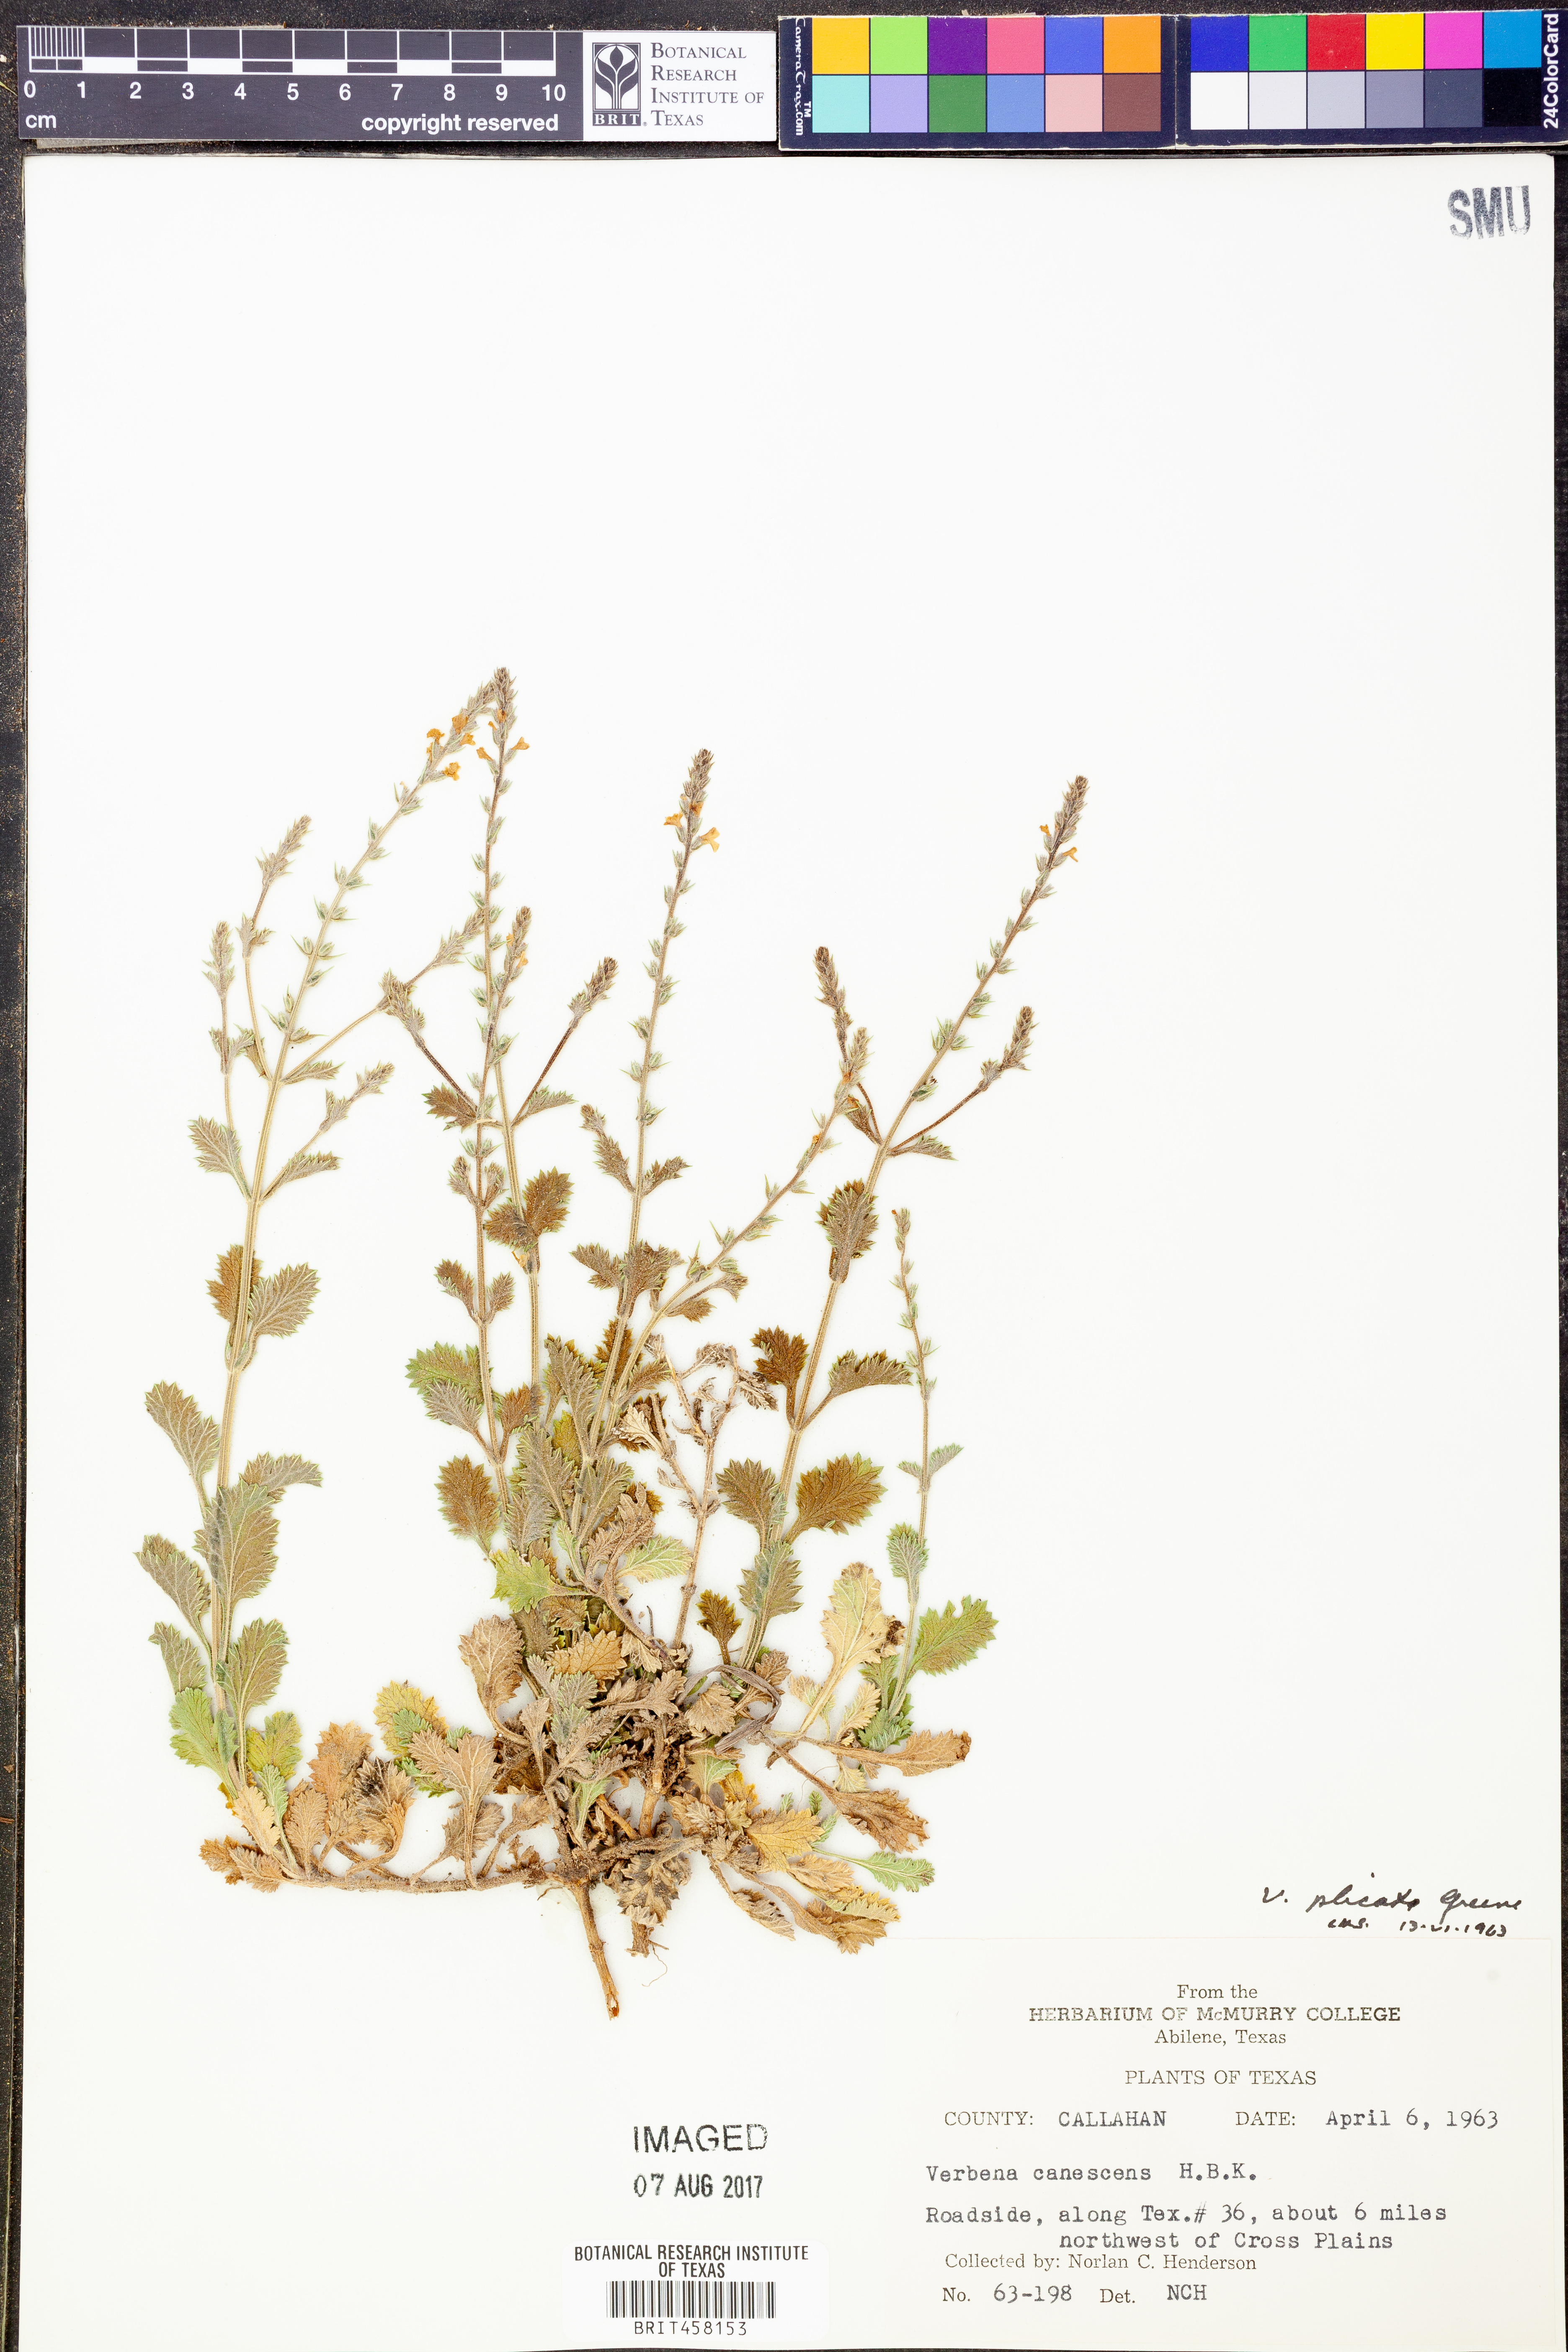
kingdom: Plantae
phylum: Tracheophyta
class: Magnoliopsida
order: Lamiales
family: Verbenaceae
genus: Verbena
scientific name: Verbena canescens
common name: Gray vervain
